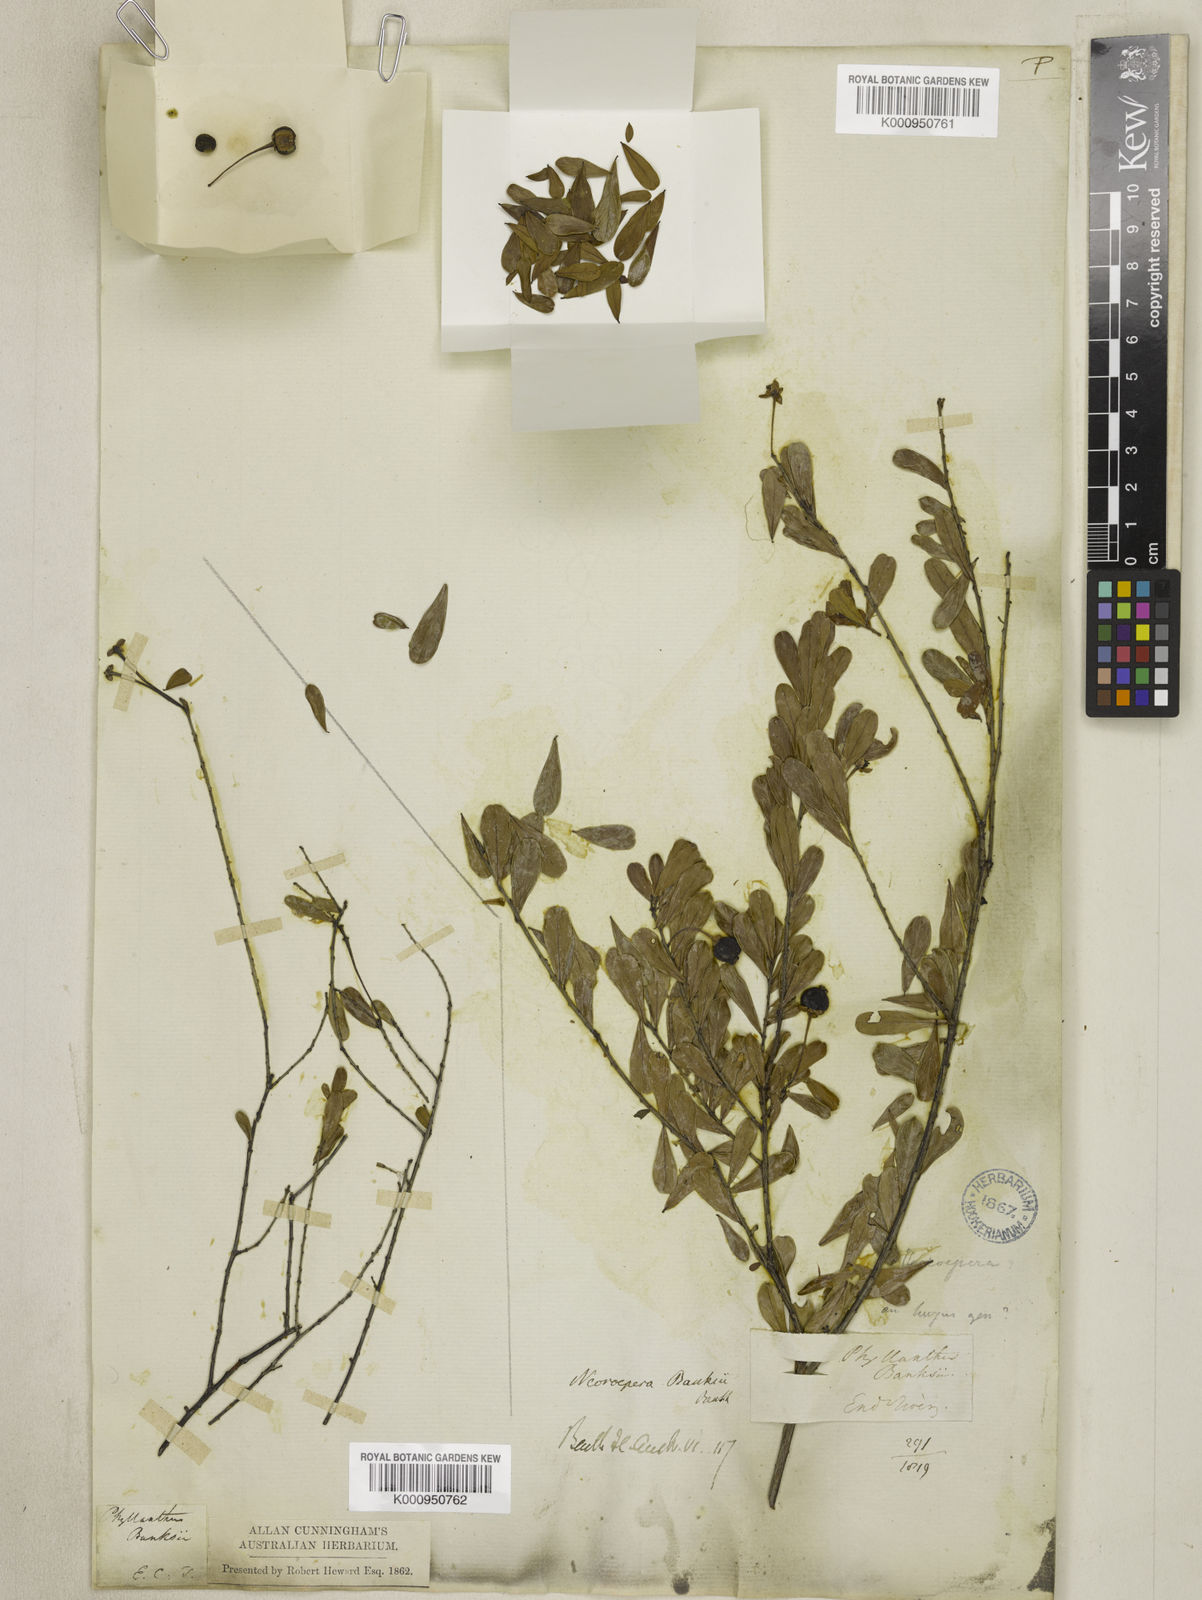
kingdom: Plantae
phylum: Tracheophyta
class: Magnoliopsida
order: Malpighiales
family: Picrodendraceae
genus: Neoroepera
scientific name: Neoroepera banksii
